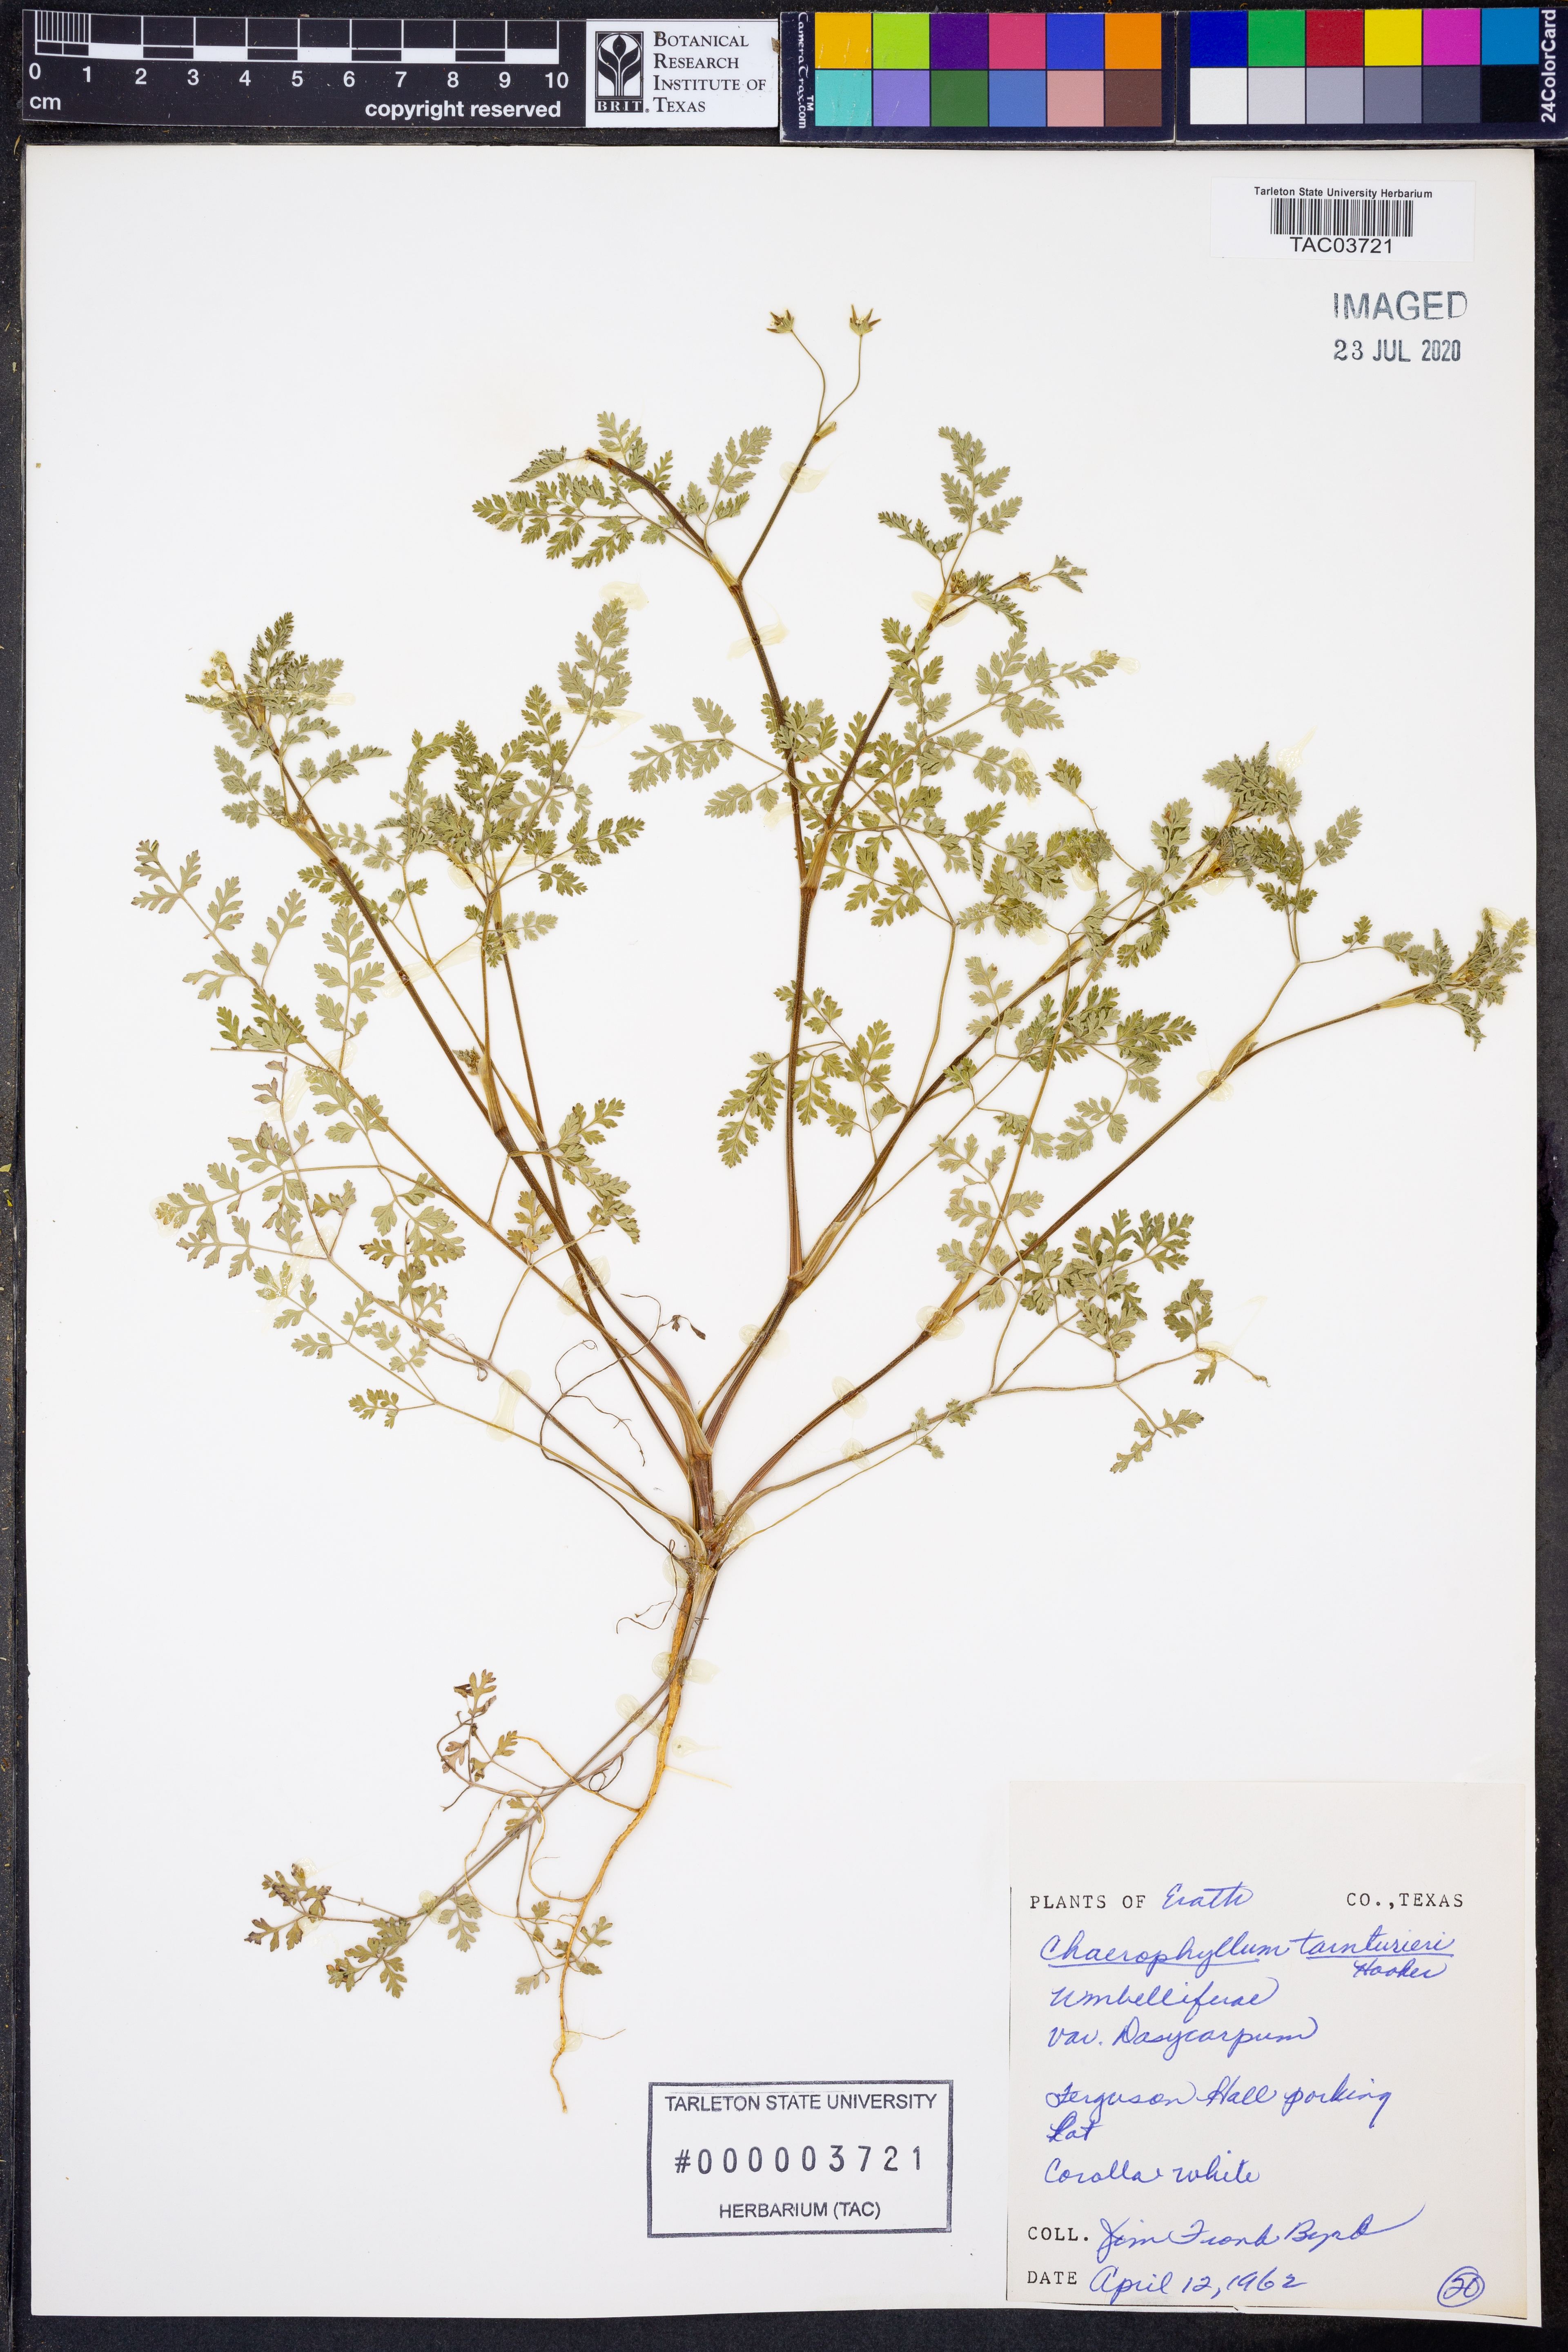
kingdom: Plantae
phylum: Tracheophyta
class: Magnoliopsida
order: Apiales
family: Apiaceae
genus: Chaerophyllum
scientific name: Chaerophyllum dasycarpum
